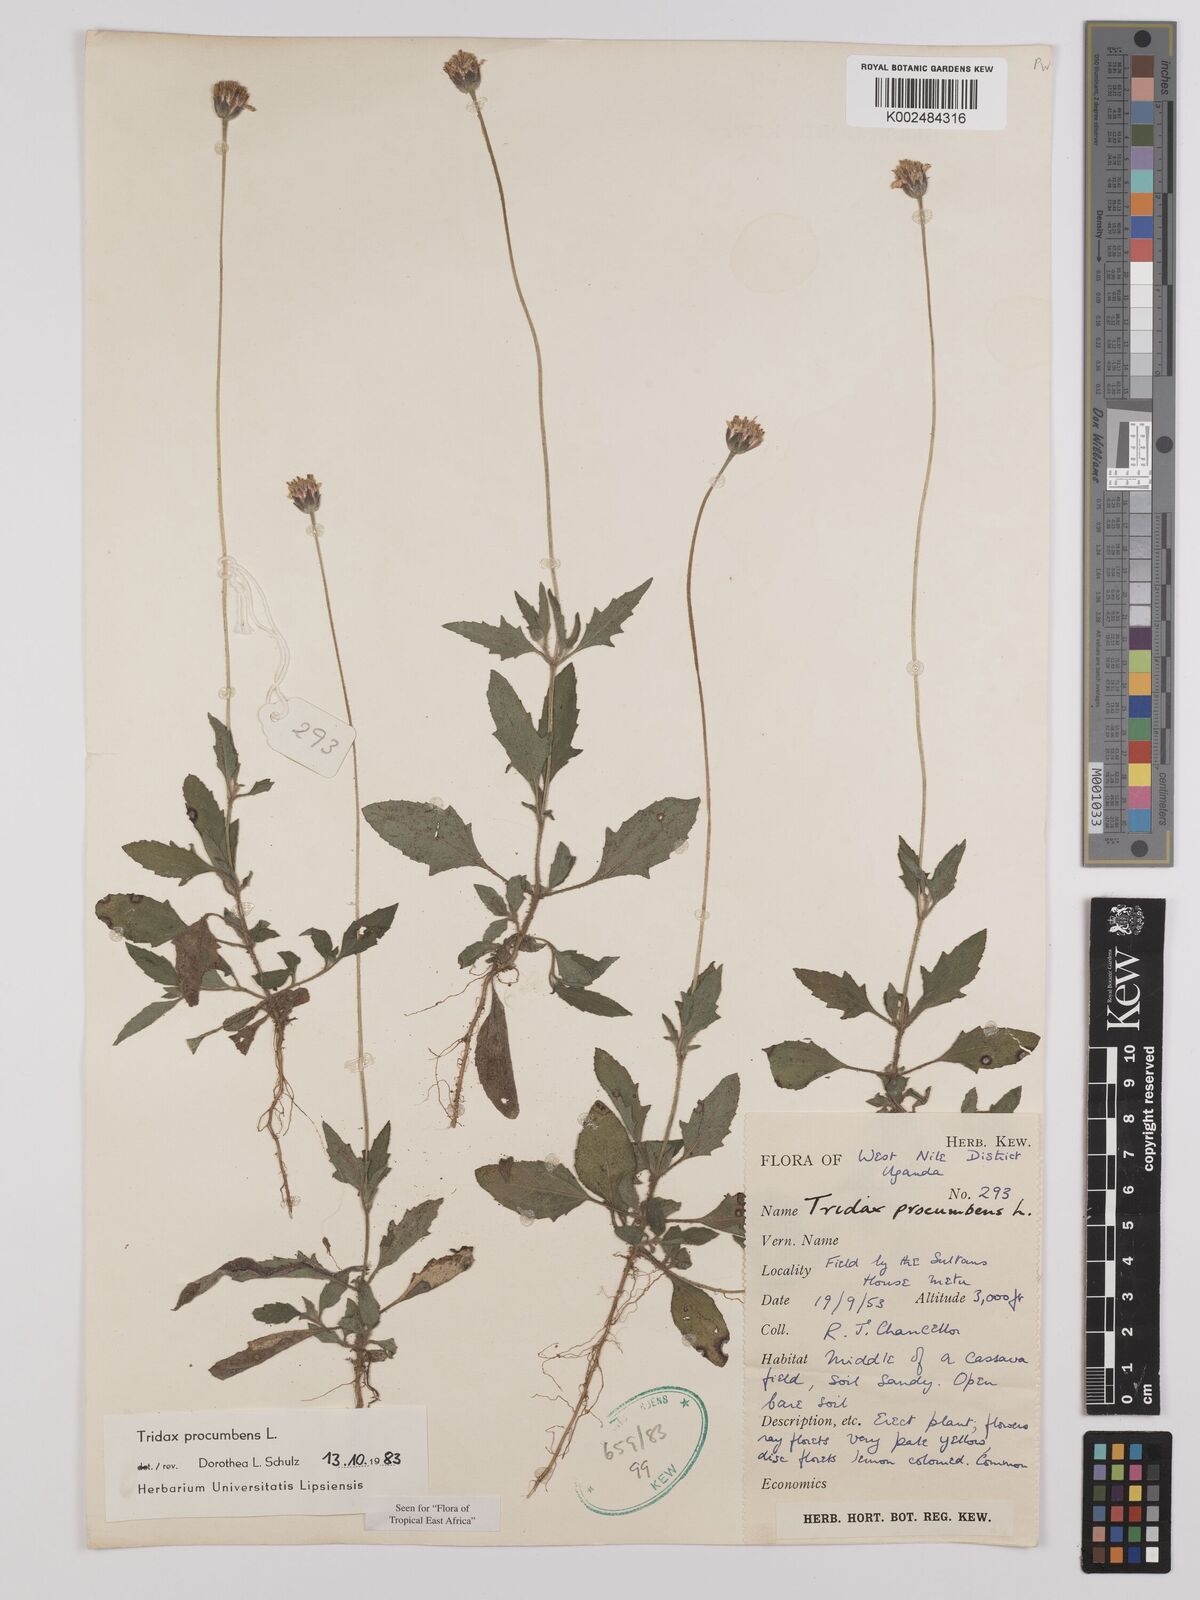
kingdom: Plantae
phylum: Tracheophyta
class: Magnoliopsida
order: Asterales
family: Asteraceae
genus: Tridax
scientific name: Tridax procumbens
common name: Coatbuttons
